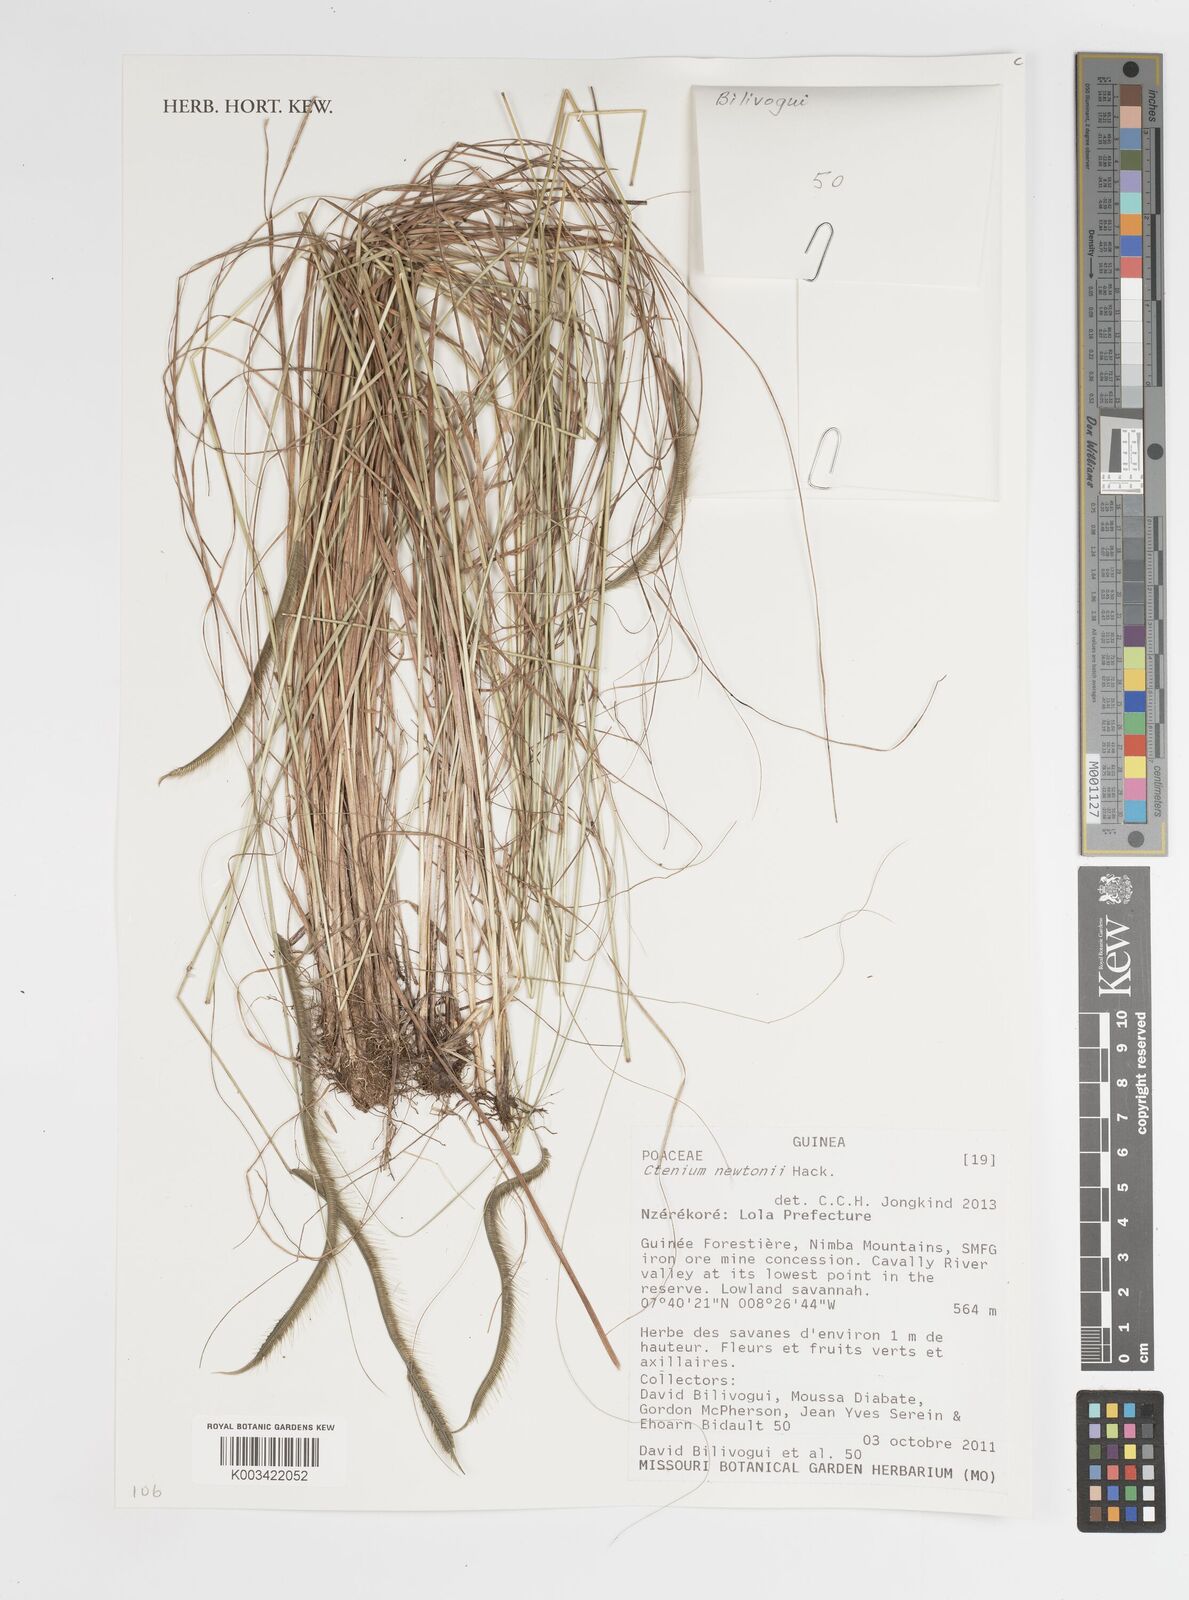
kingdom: Plantae
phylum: Tracheophyta
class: Liliopsida
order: Poales
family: Poaceae
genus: Ctenium
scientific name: Ctenium newtonii
